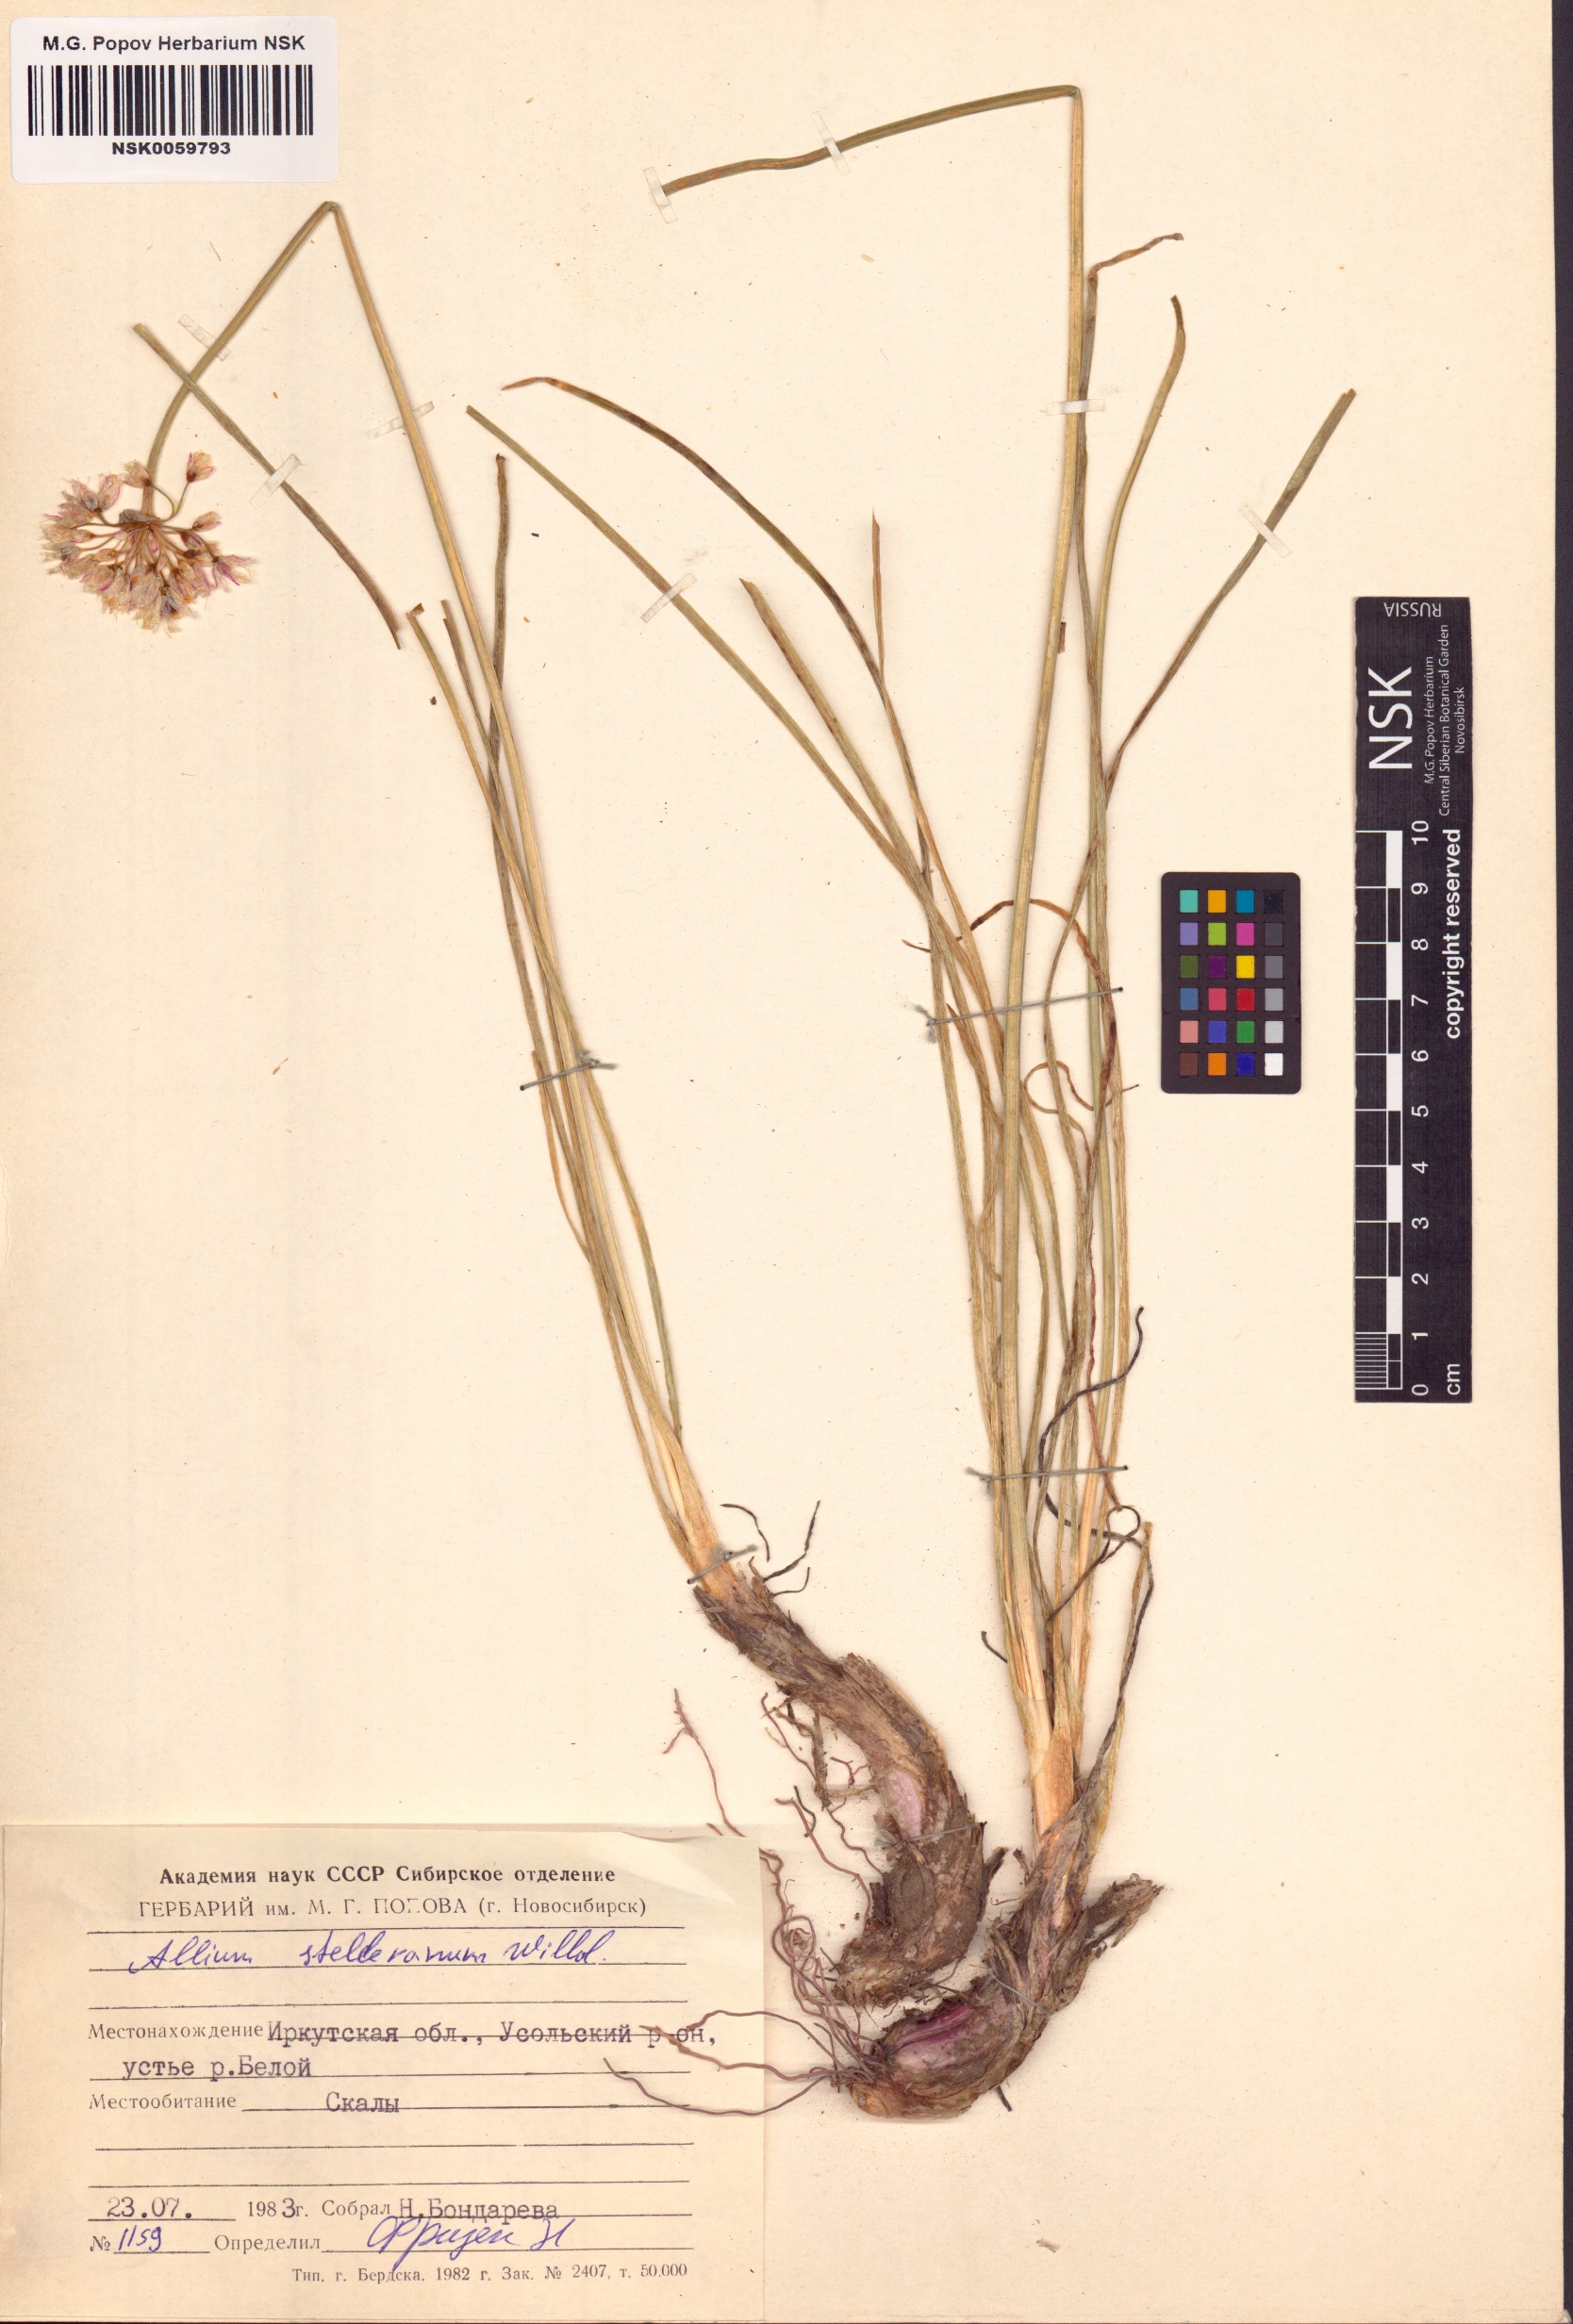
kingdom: Plantae
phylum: Tracheophyta
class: Liliopsida
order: Asparagales
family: Amaryllidaceae
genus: Allium
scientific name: Allium stellerianum
